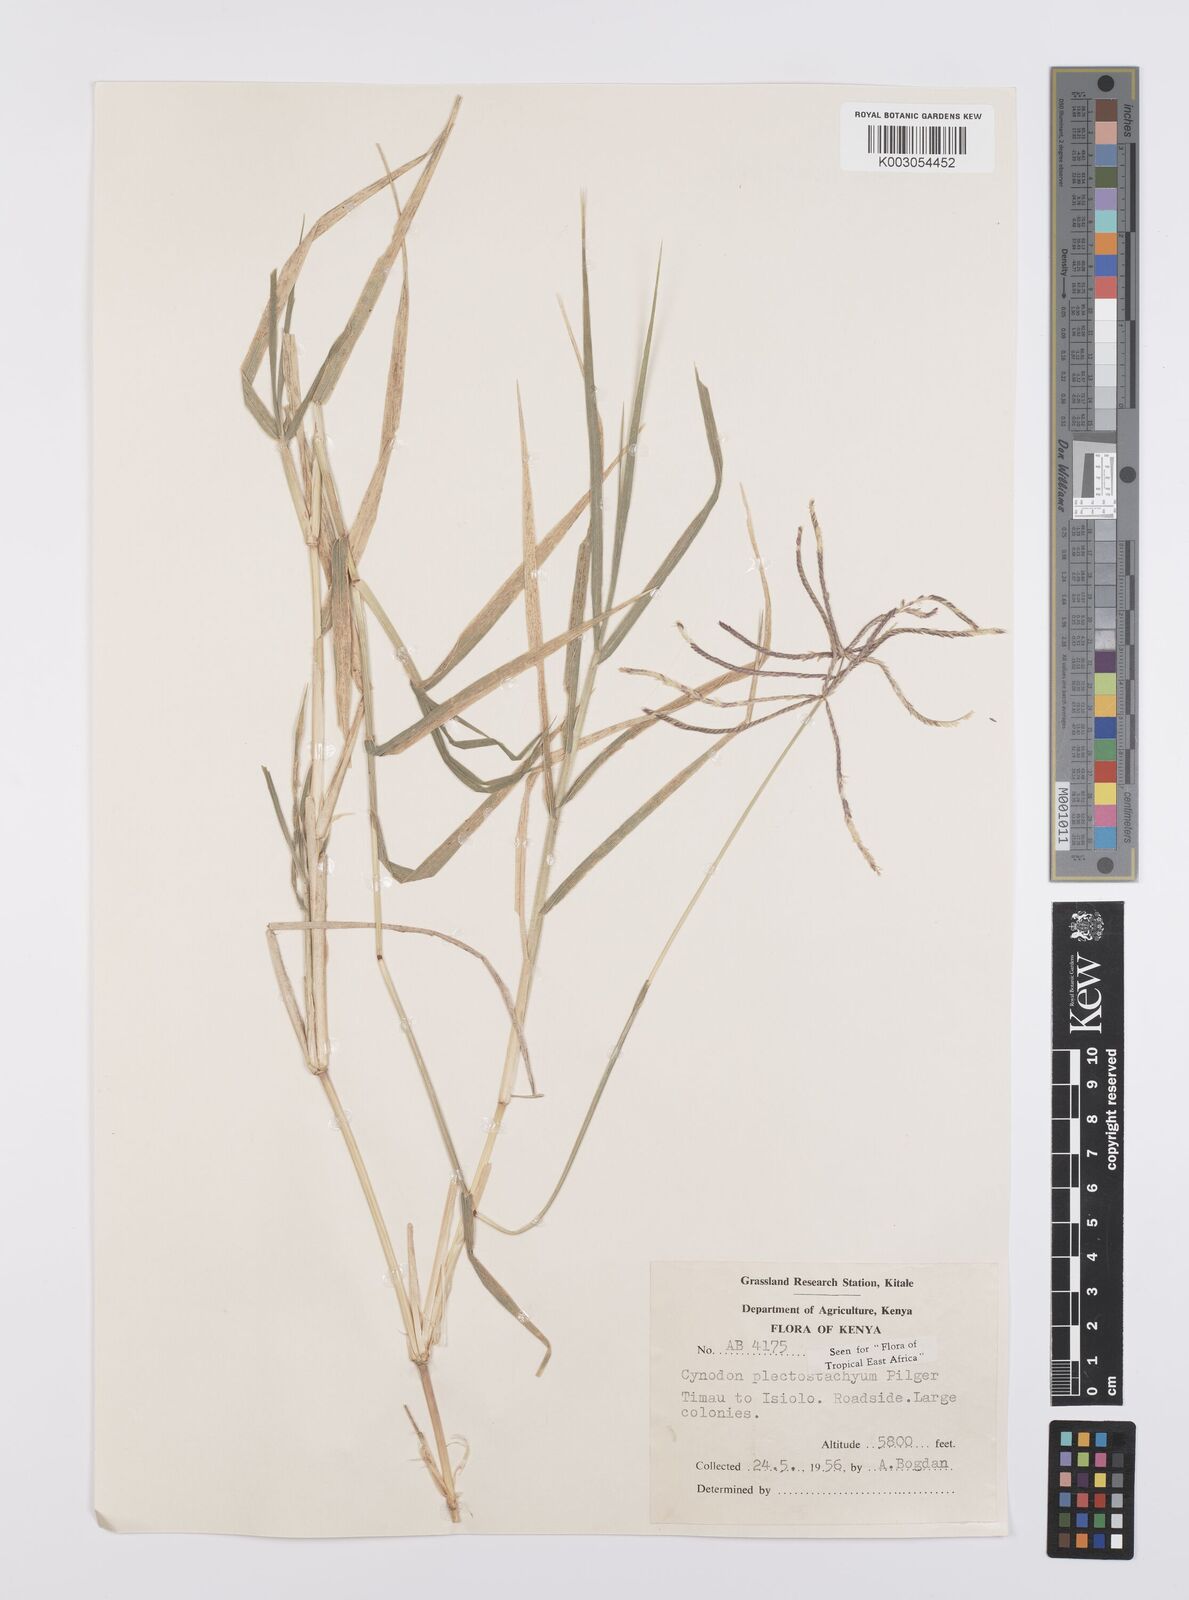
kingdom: Plantae
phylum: Tracheophyta
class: Liliopsida
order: Poales
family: Poaceae
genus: Cynodon
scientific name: Cynodon plectostachyus
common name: Stargrass
